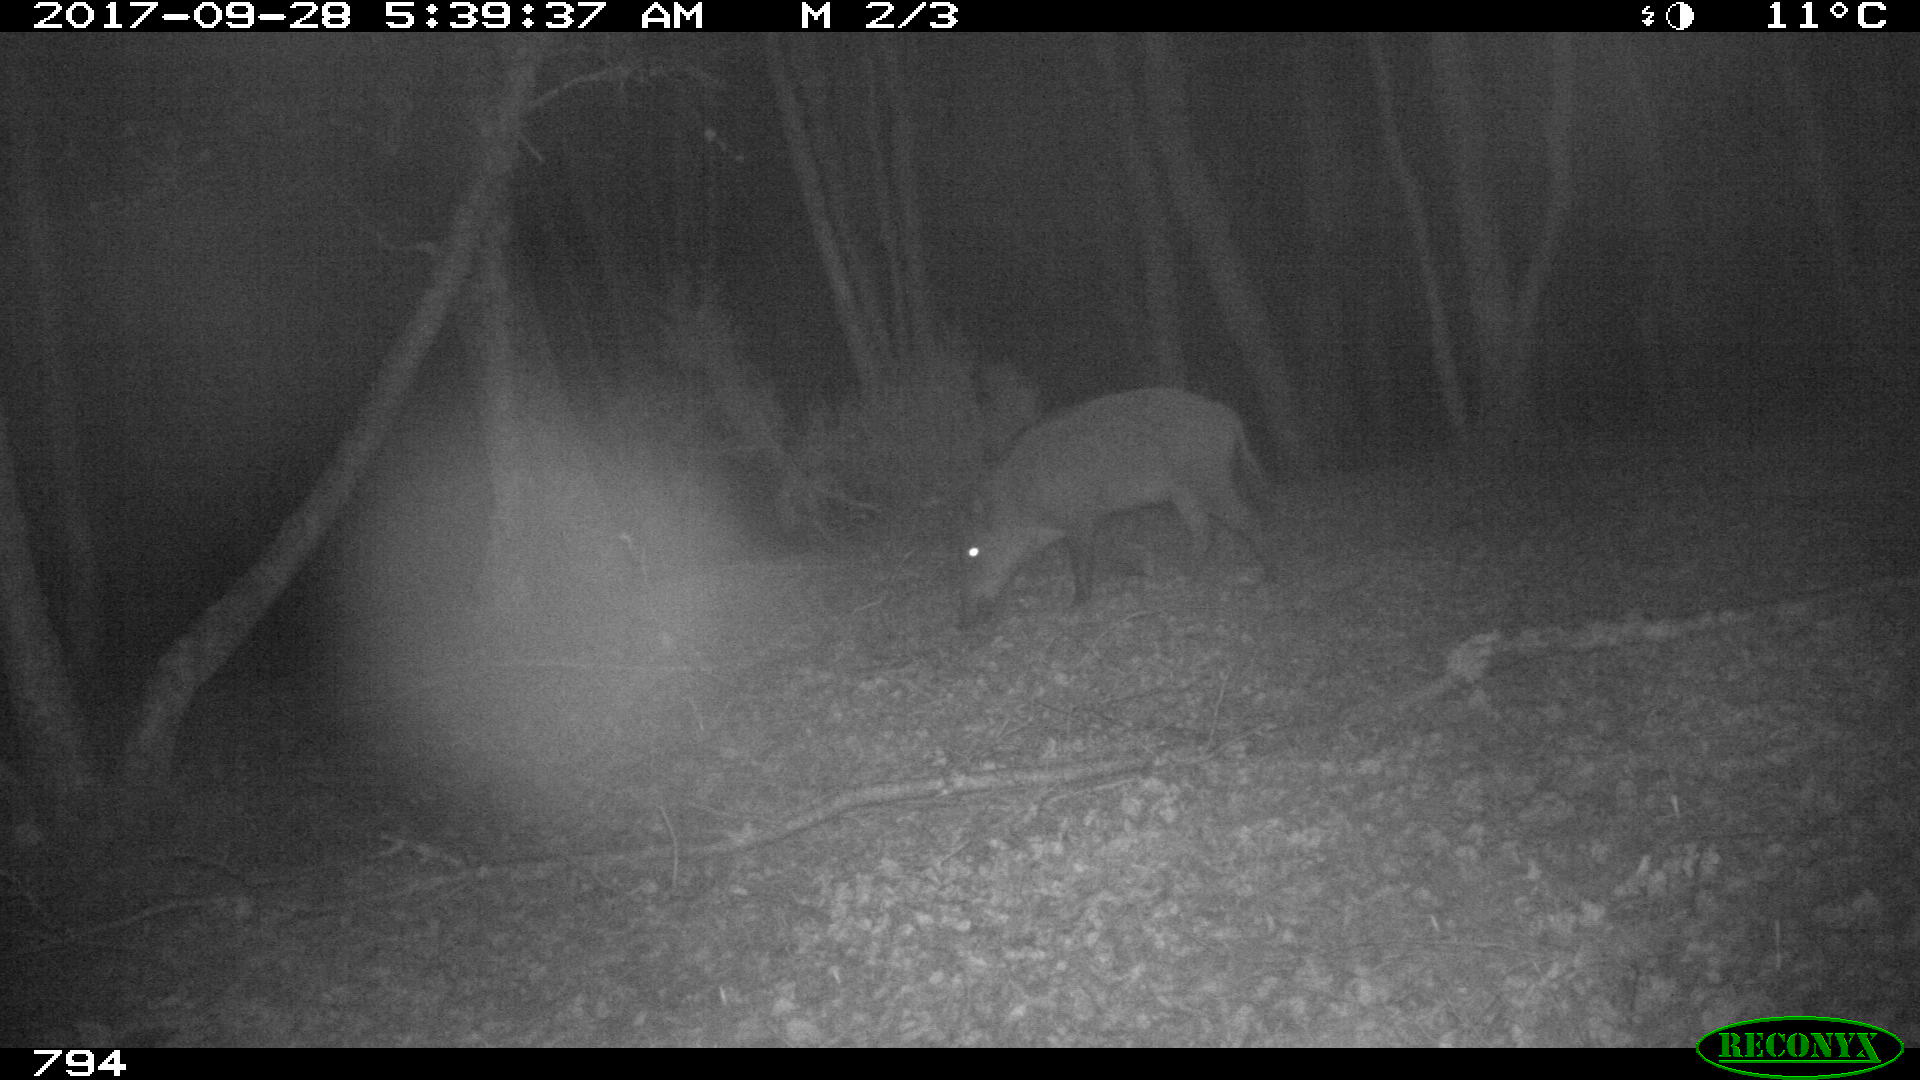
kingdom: Animalia
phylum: Chordata
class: Mammalia
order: Artiodactyla
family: Suidae
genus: Sus
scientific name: Sus scrofa
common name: Wild boar
